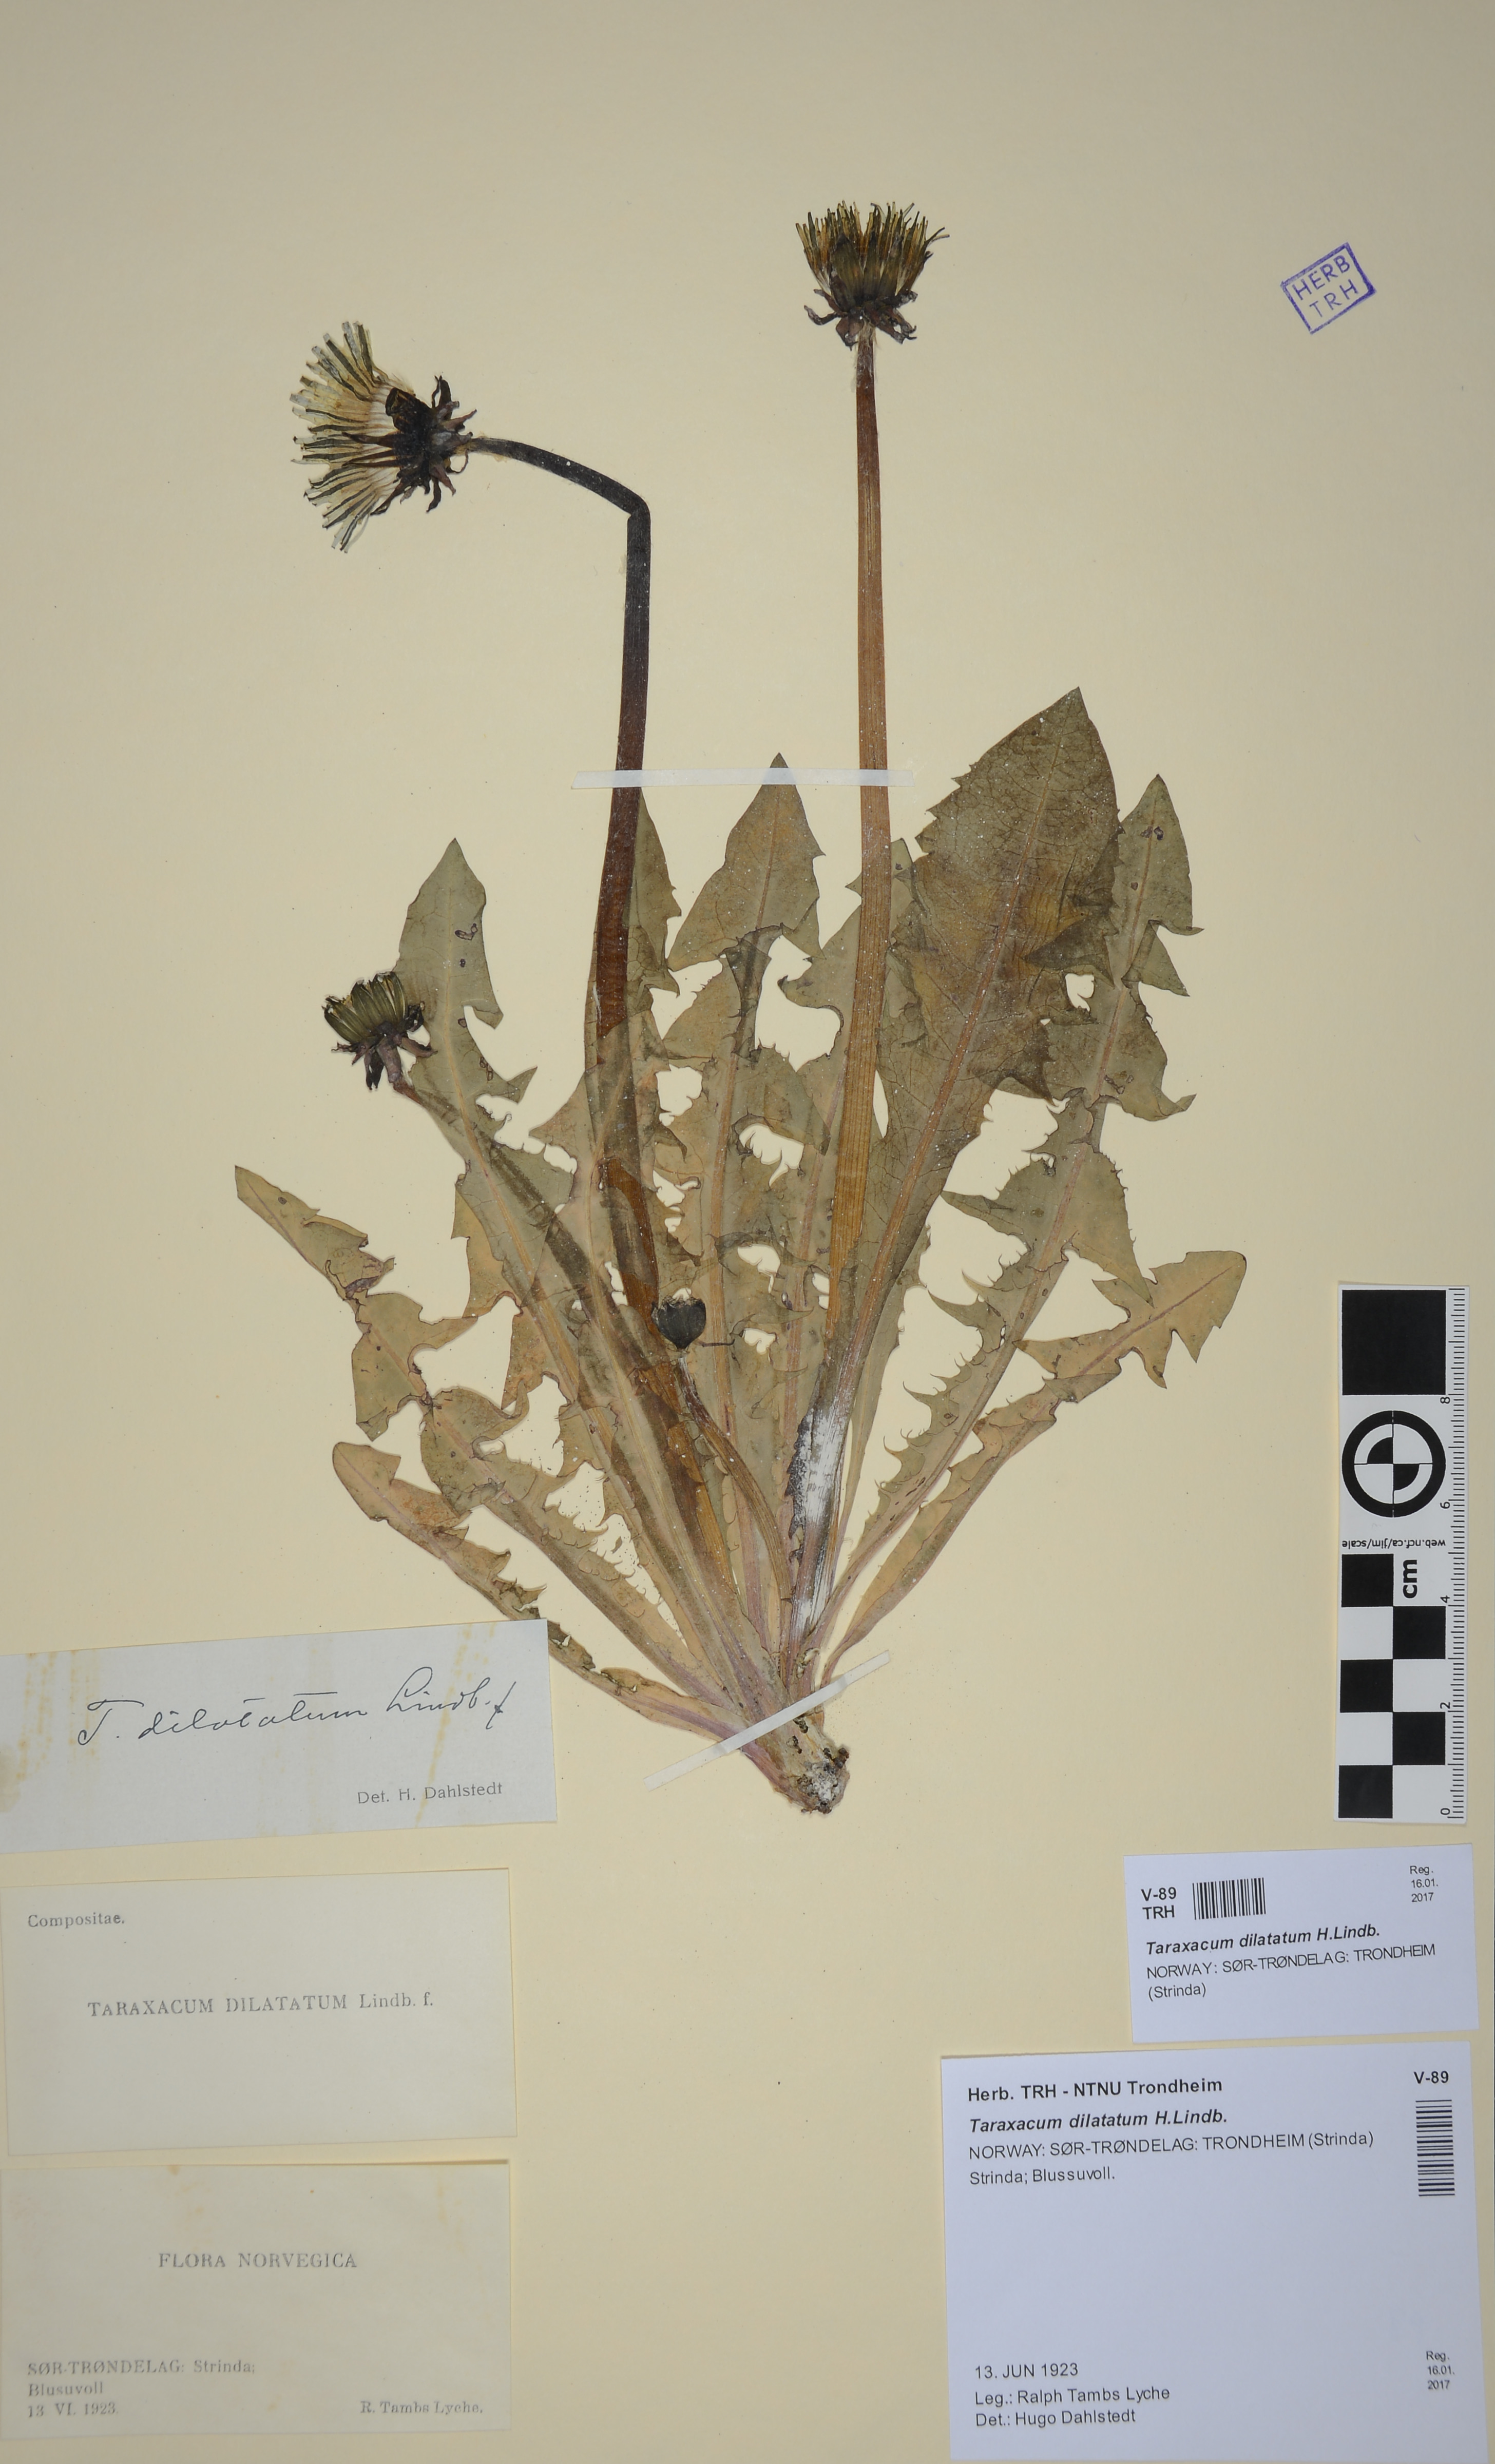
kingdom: Plantae
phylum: Tracheophyta
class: Magnoliopsida
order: Asterales
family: Asteraceae
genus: Taraxacum
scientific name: Taraxacum dilatatum
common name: Grassland dandelion
